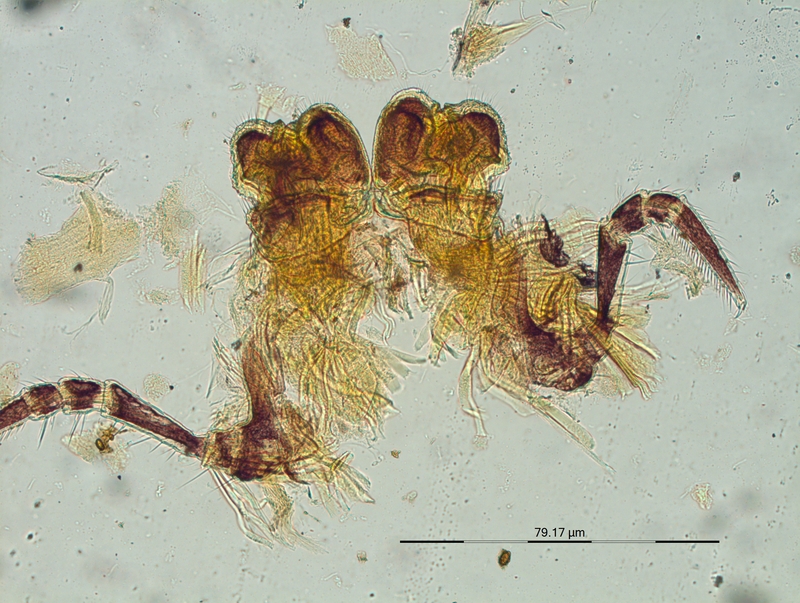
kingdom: Animalia
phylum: Arthropoda
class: Diplopoda
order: Chordeumatida
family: Craspedosomatidae
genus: Craspedosoma
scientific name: Craspedosoma alemannicum
